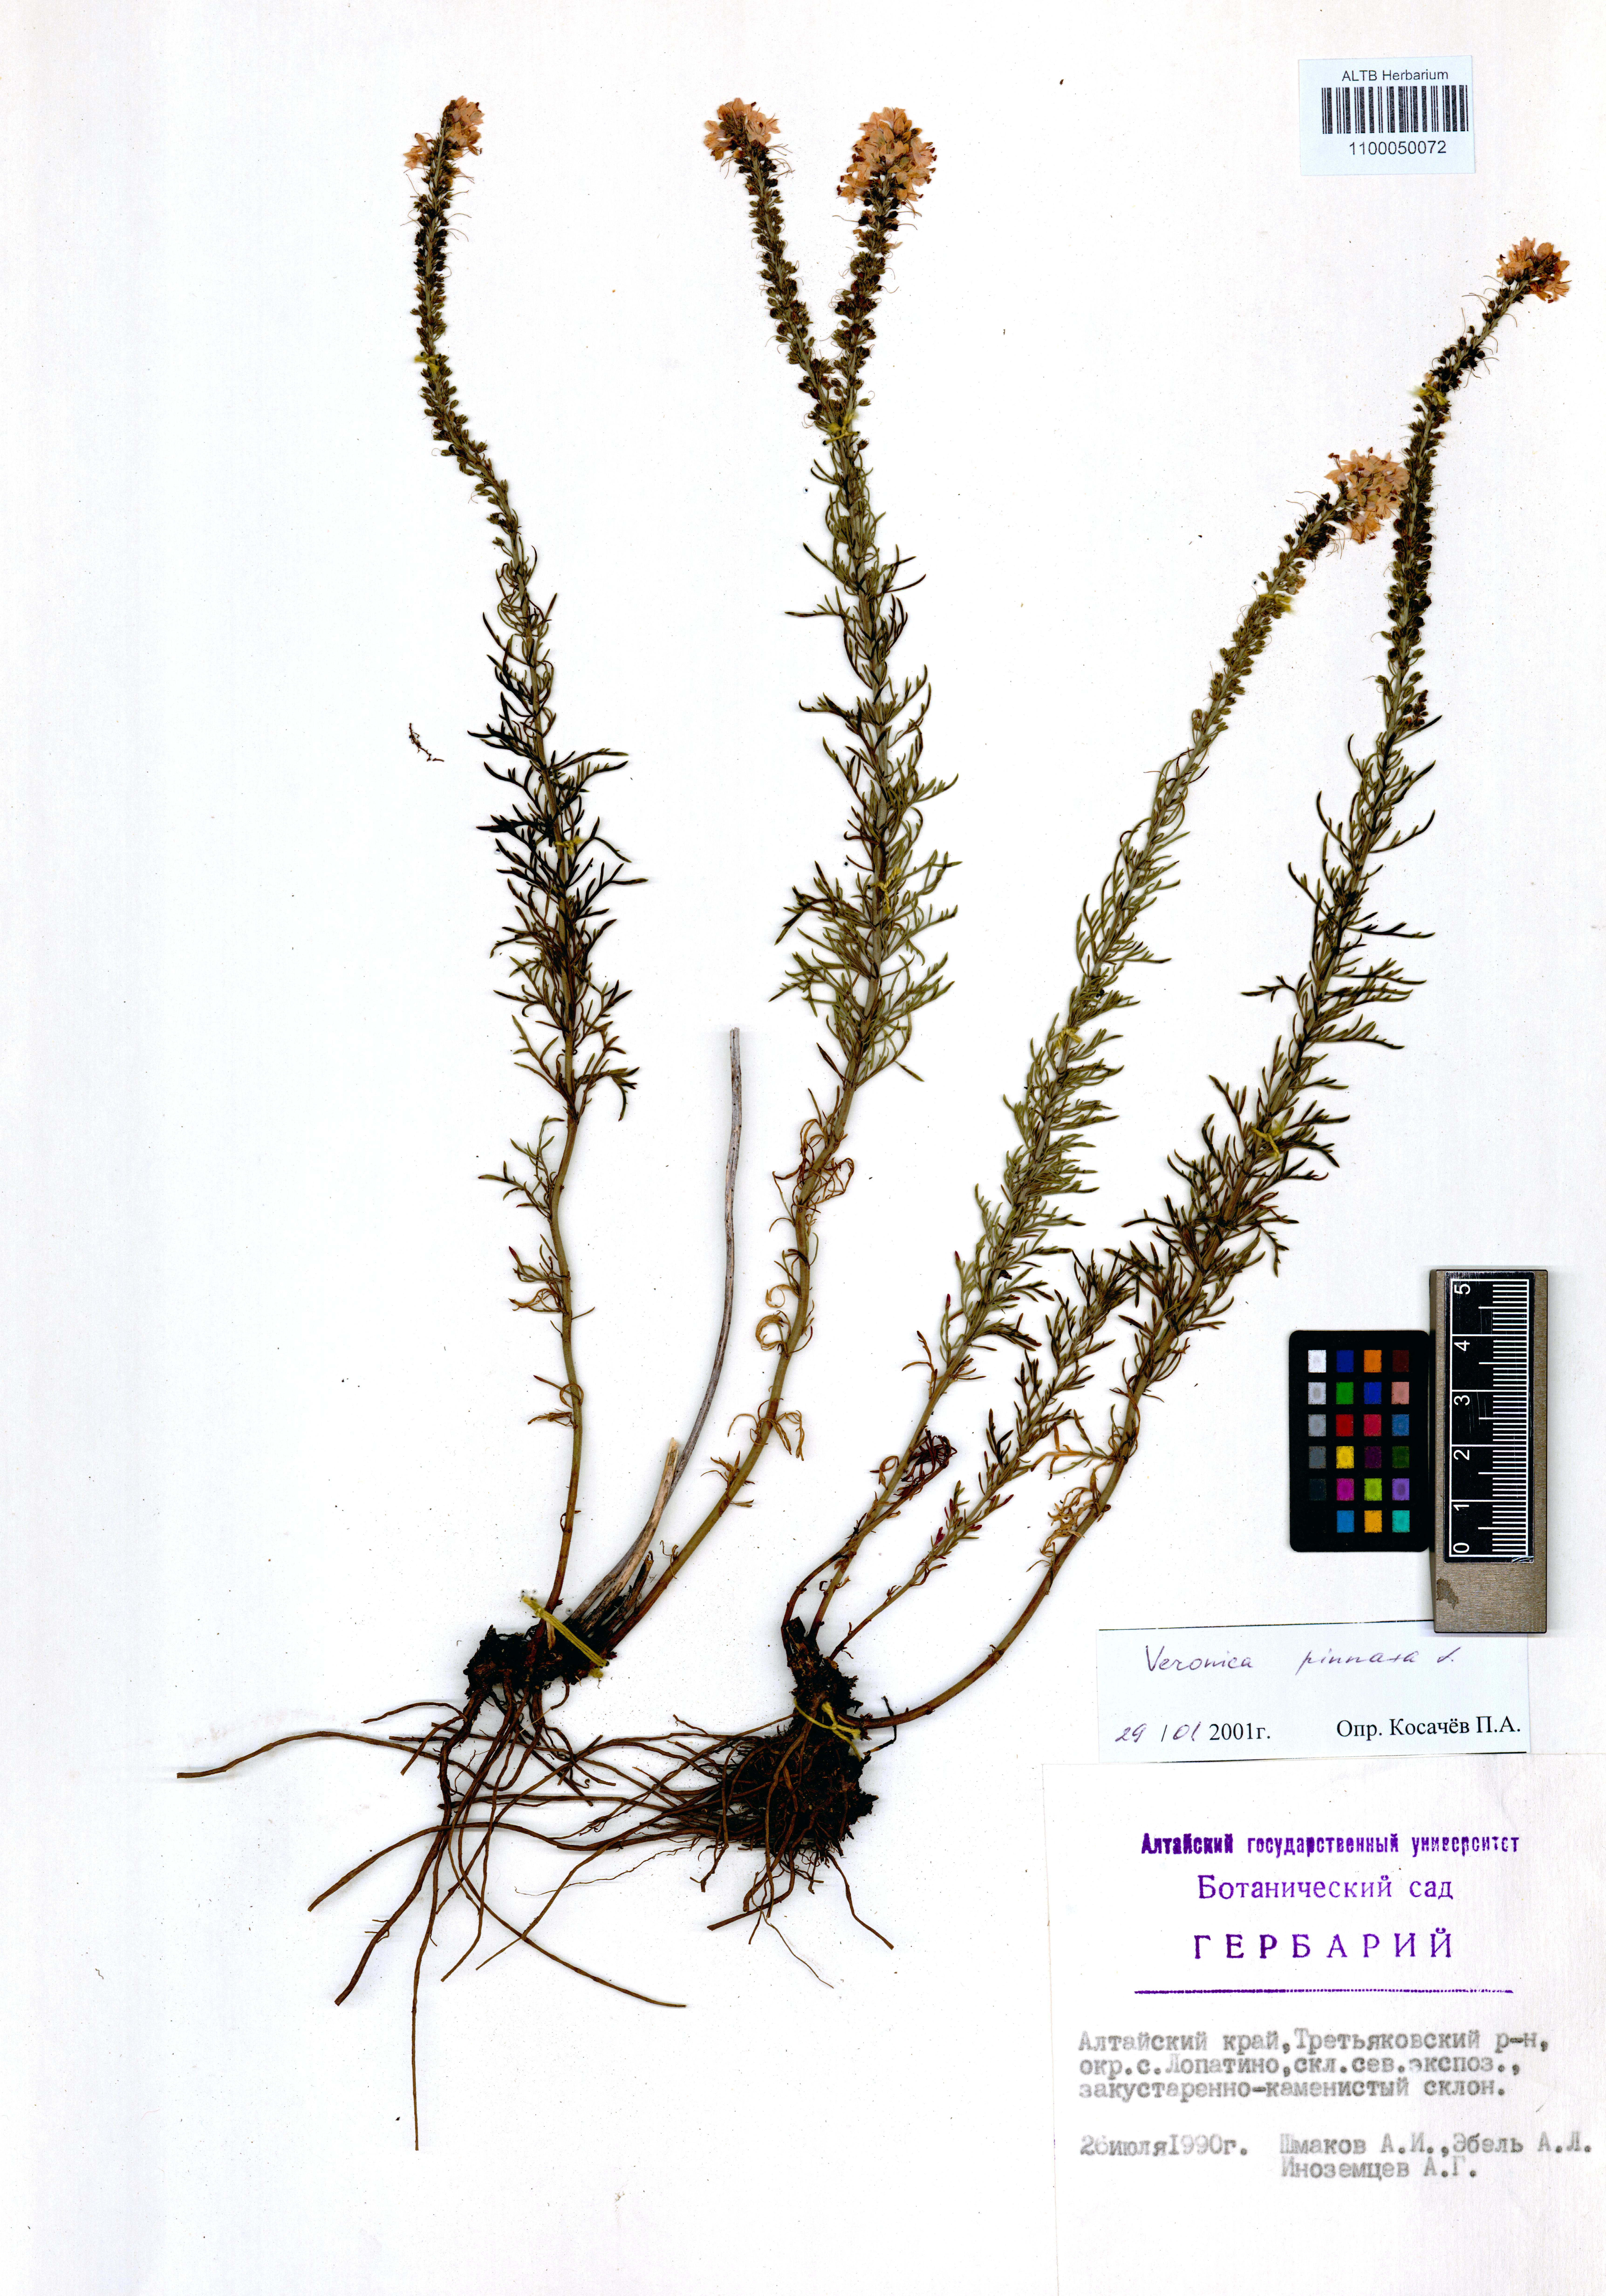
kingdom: Plantae
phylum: Tracheophyta
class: Magnoliopsida
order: Lamiales
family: Plantaginaceae
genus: Veronica
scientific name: Veronica pinnata
